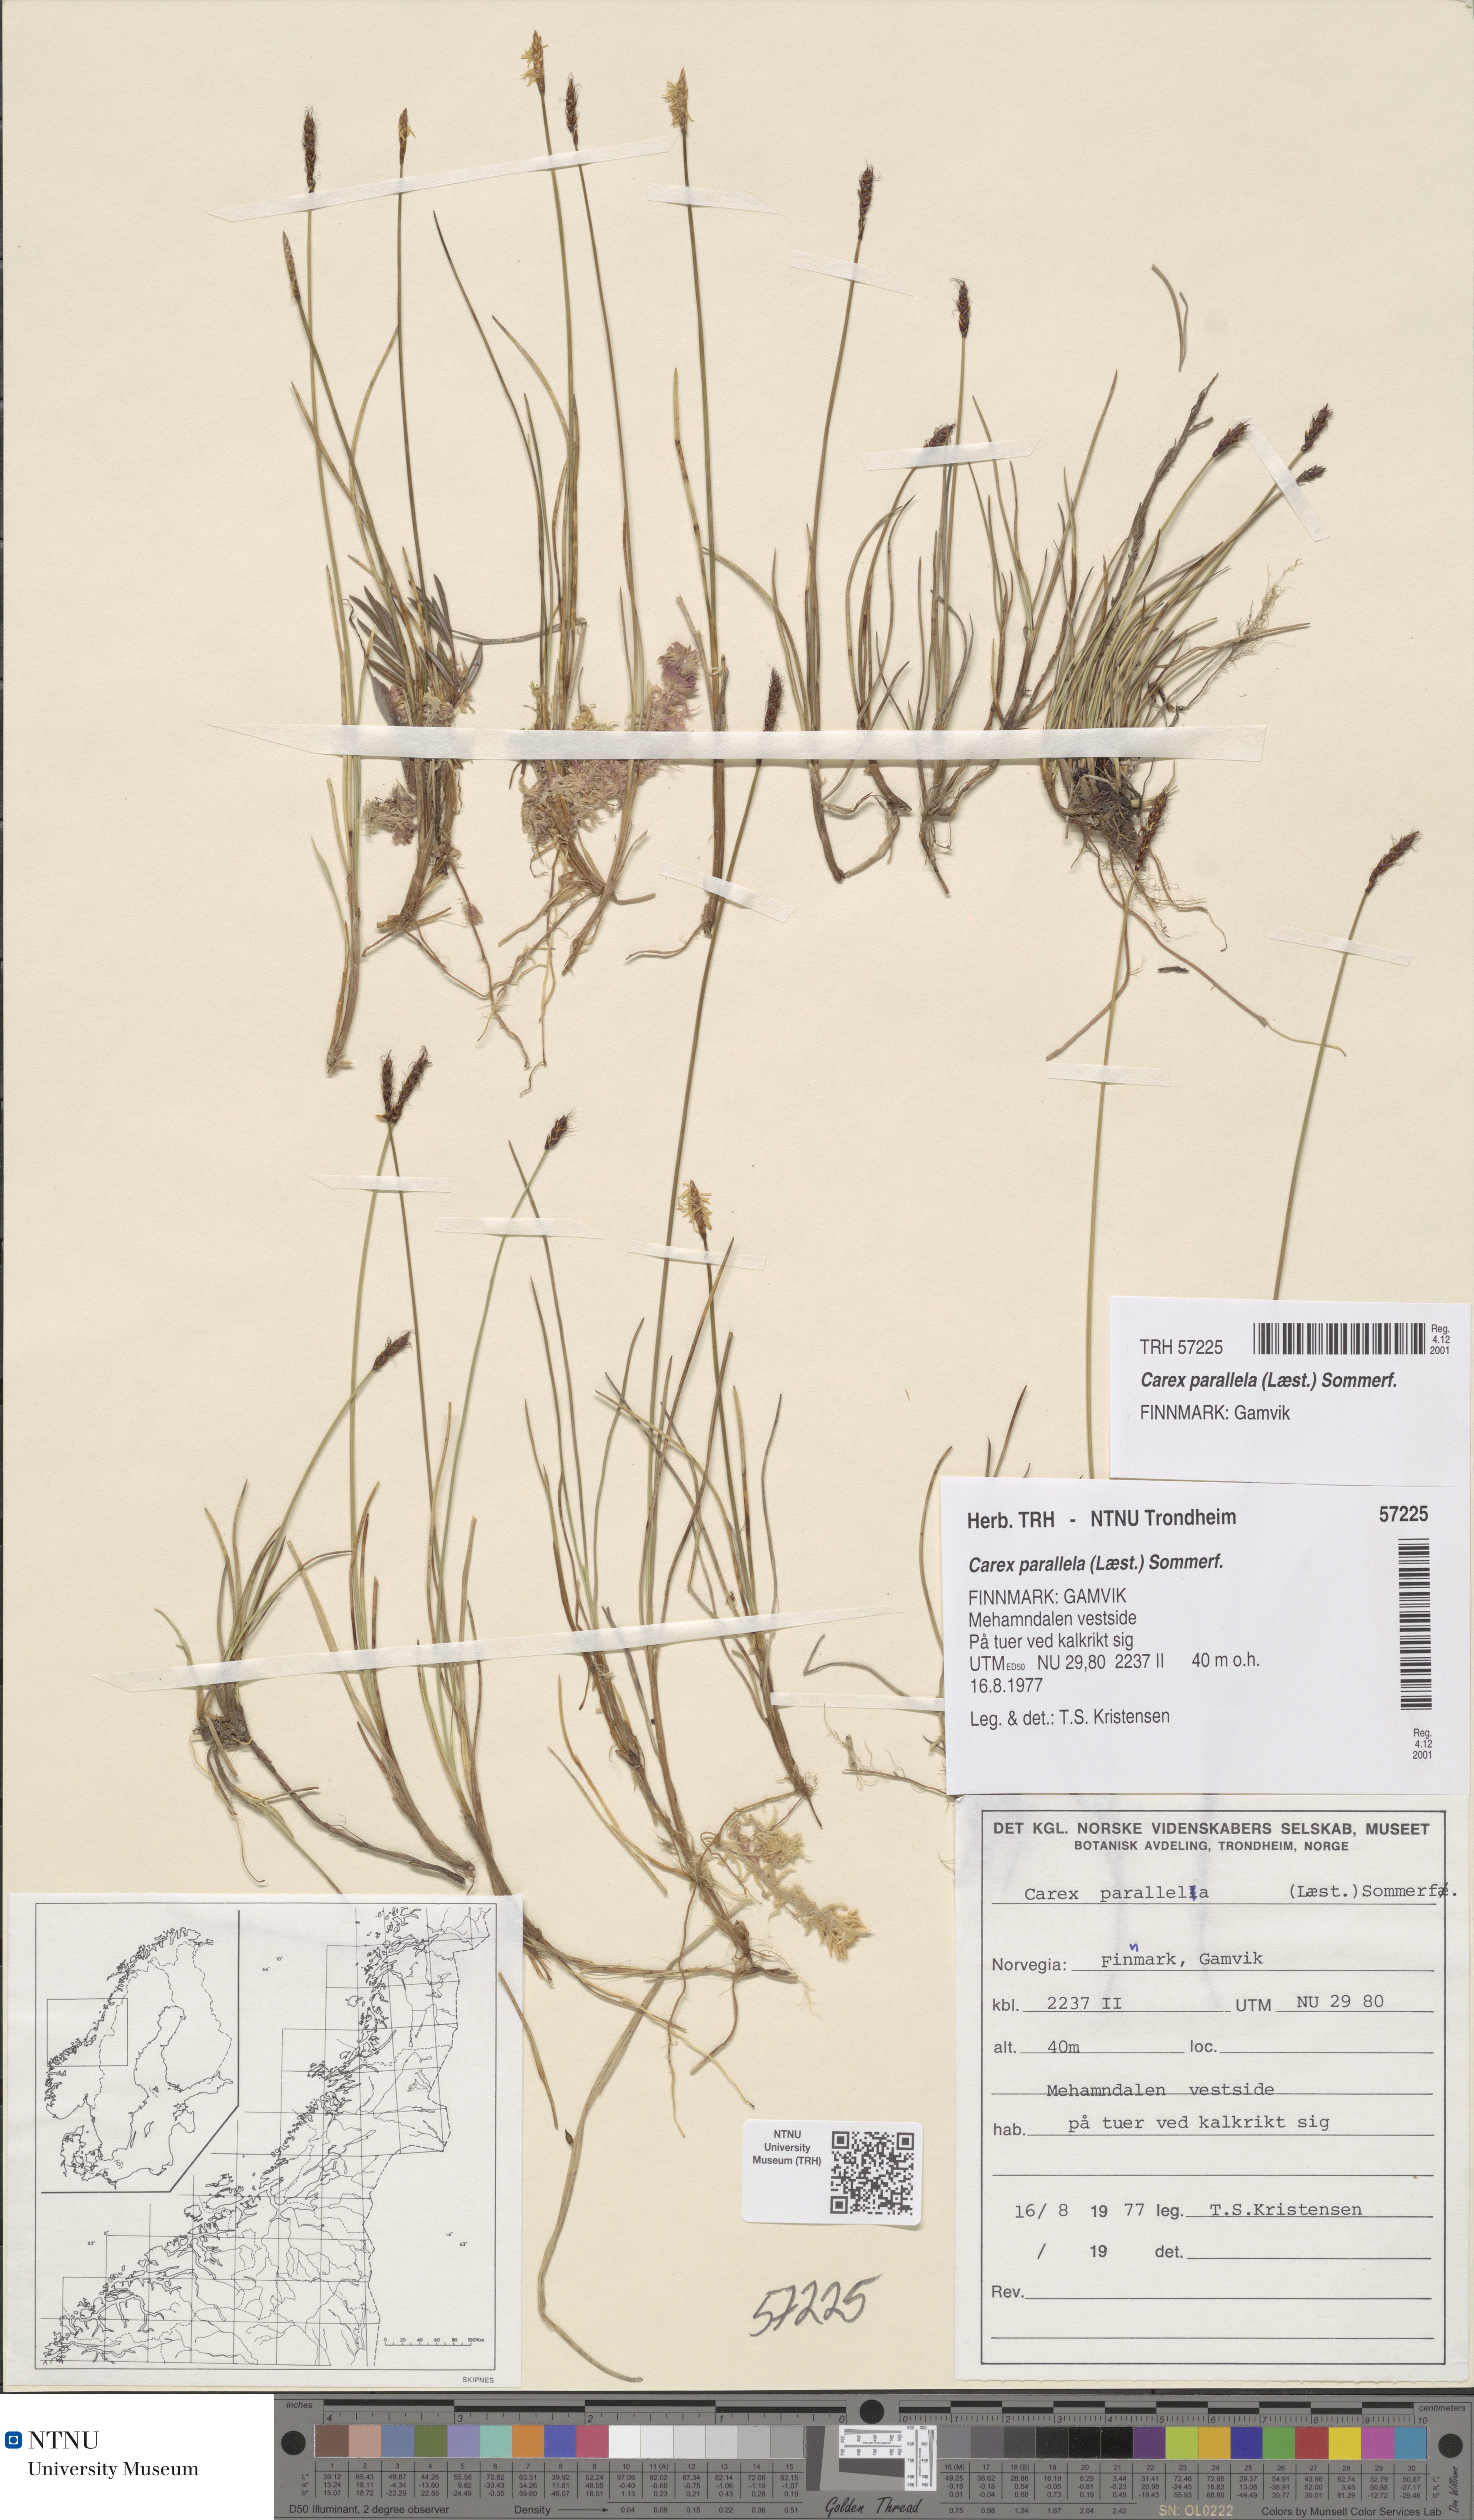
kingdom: Plantae
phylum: Tracheophyta
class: Liliopsida
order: Poales
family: Cyperaceae
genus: Carex
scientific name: Carex parallela
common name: Parallel sedge
